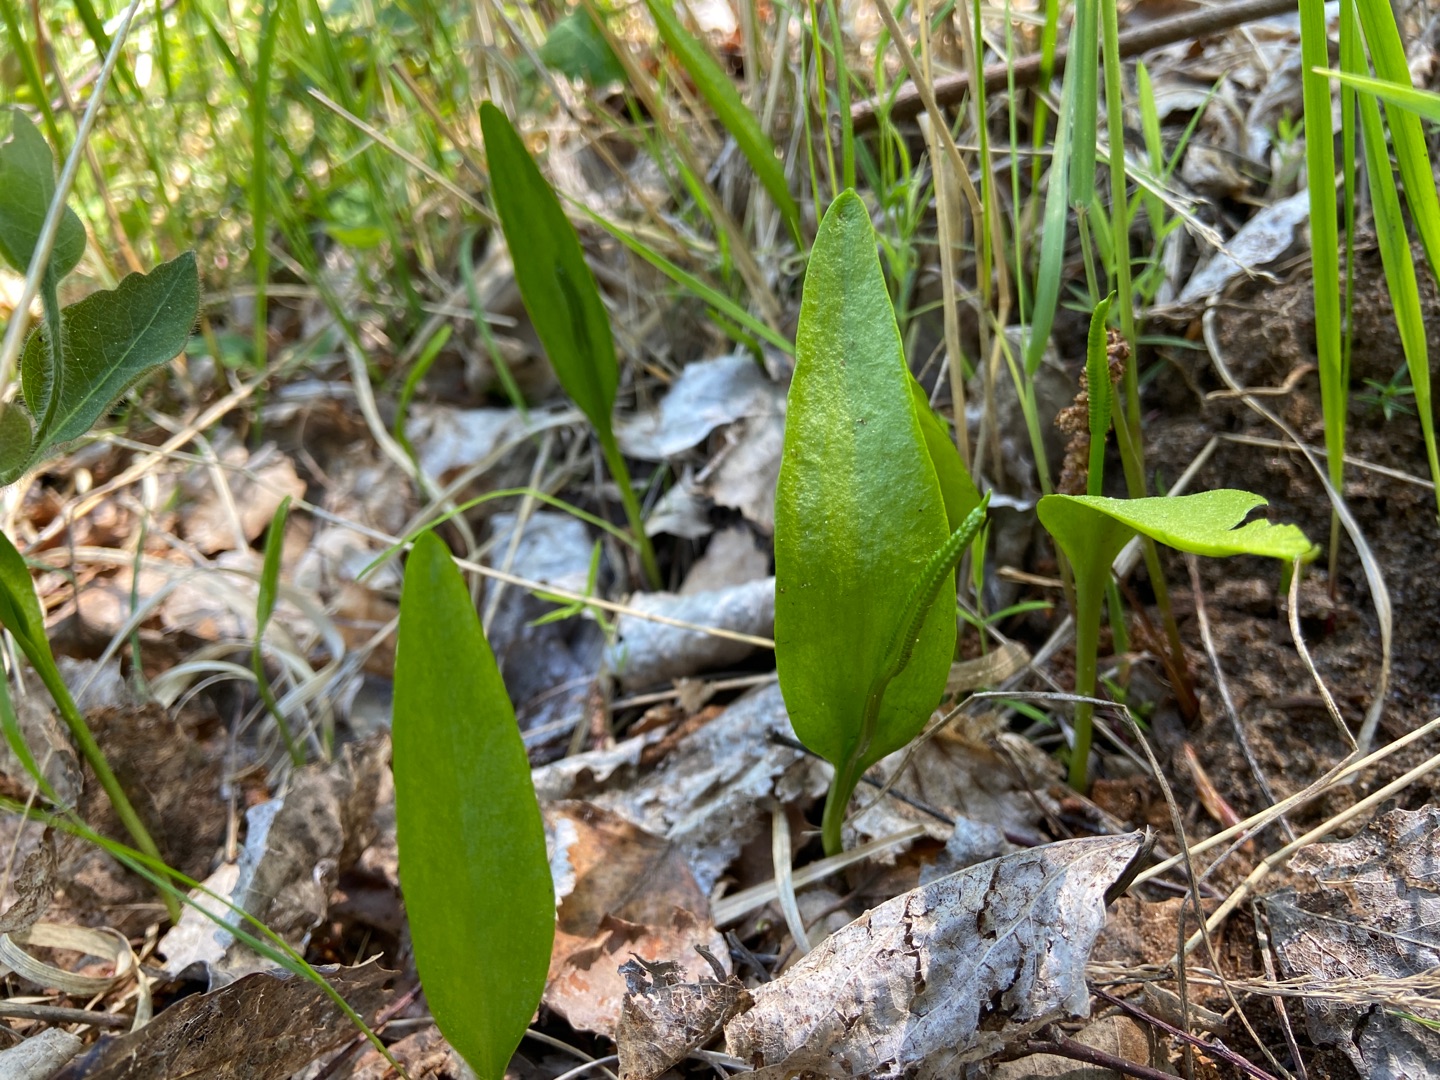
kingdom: Plantae
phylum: Tracheophyta
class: Polypodiopsida
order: Ophioglossales
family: Ophioglossaceae
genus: Ophioglossum
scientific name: Ophioglossum vulgatum
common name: Slangetunge
